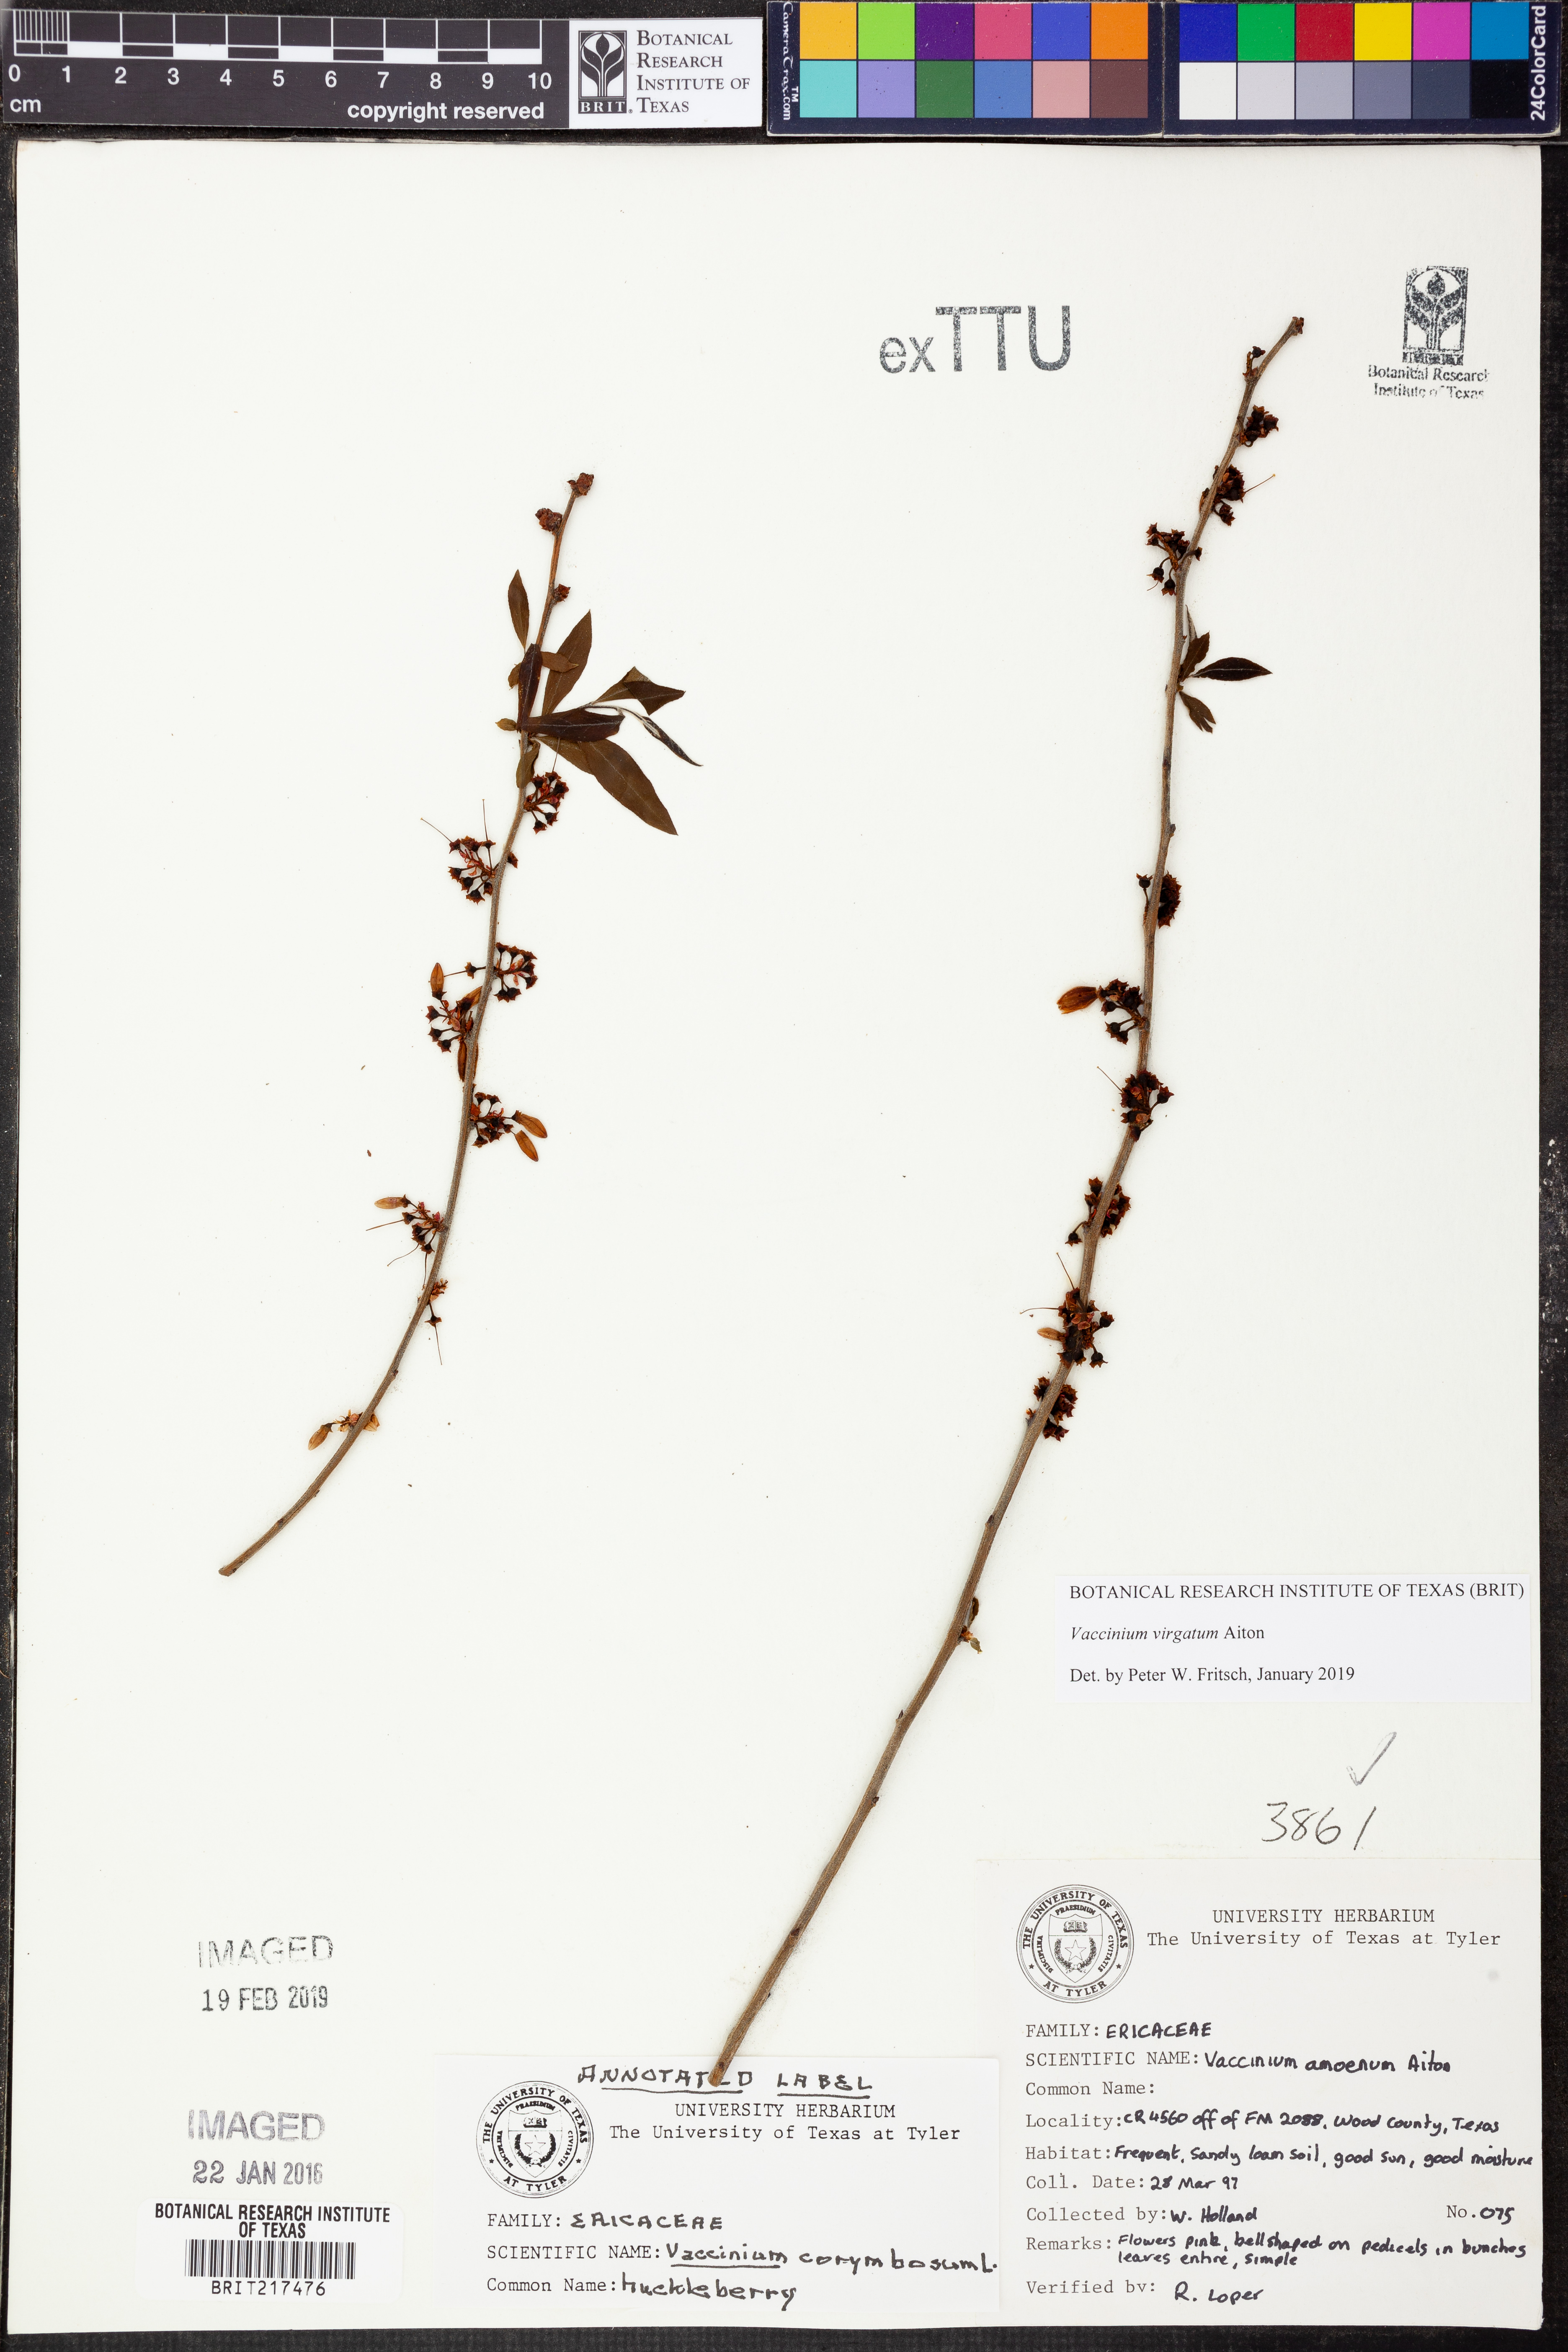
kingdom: Plantae
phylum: Tracheophyta
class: Magnoliopsida
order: Ericales
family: Ericaceae
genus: Vaccinium
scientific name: Vaccinium corymbosum
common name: Blueberry
